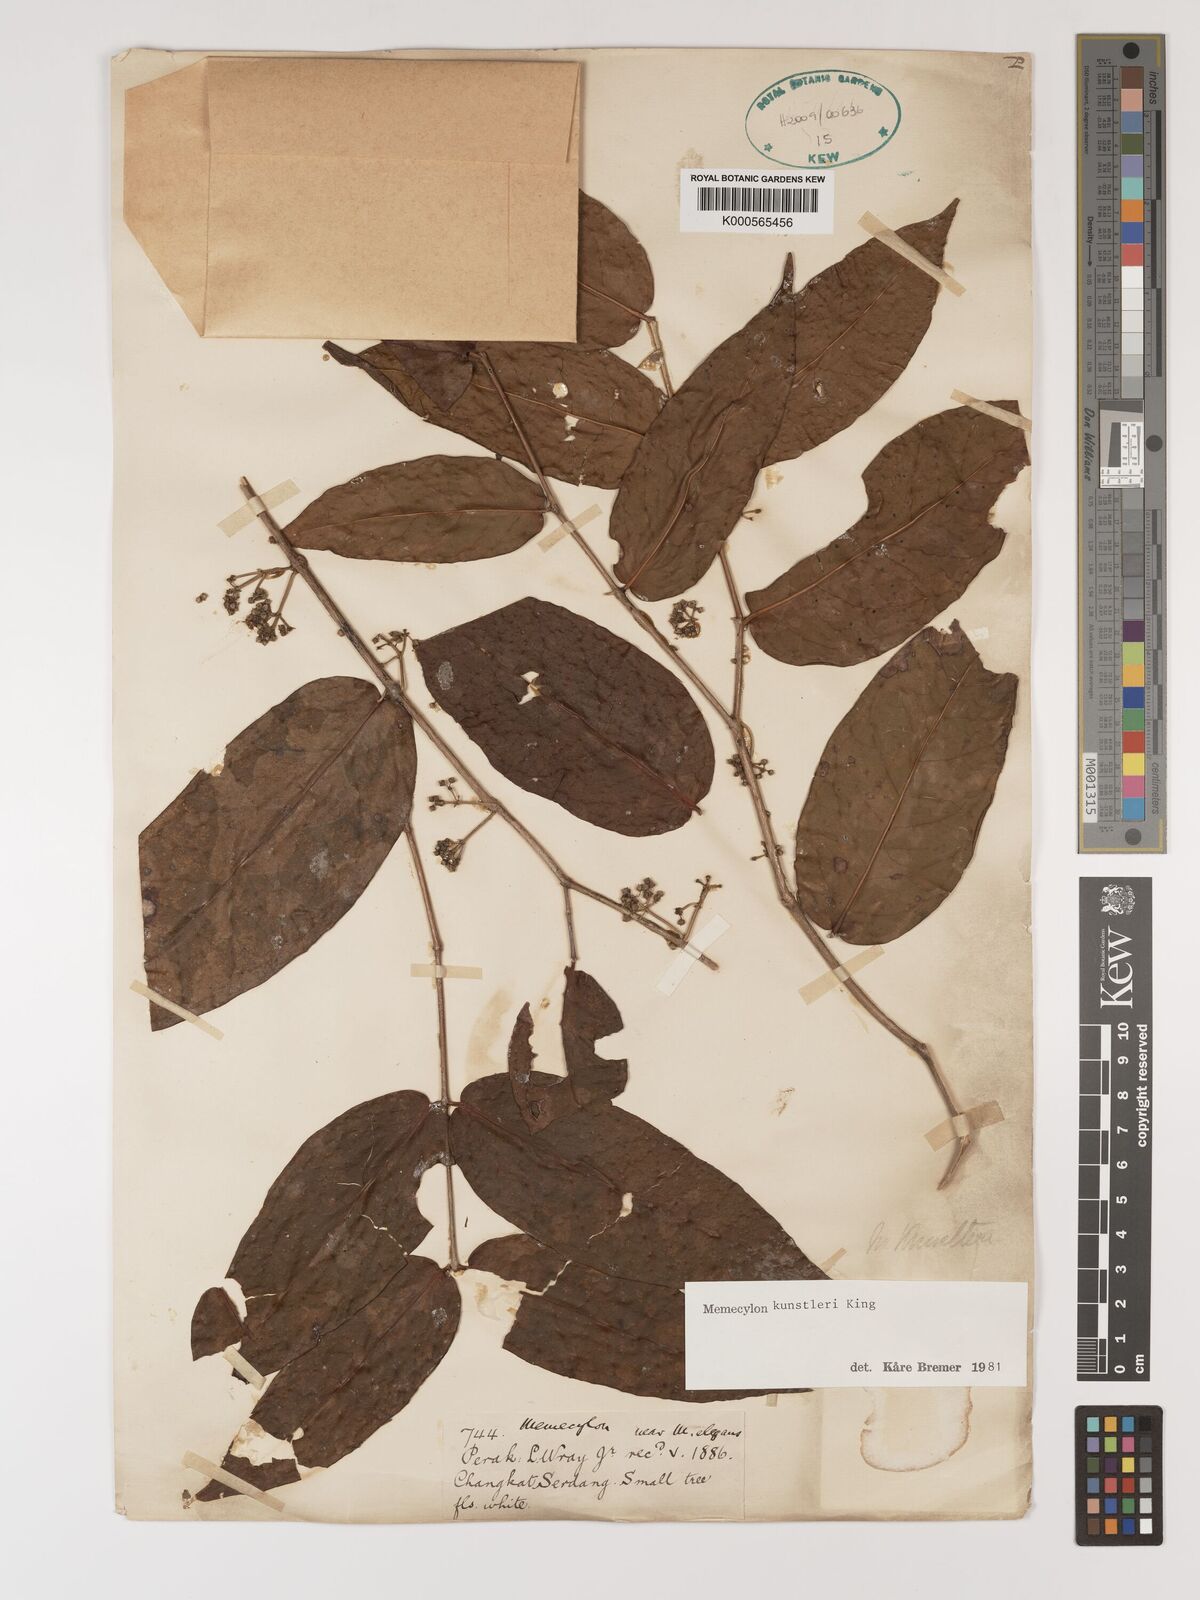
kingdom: Plantae
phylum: Tracheophyta
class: Magnoliopsida
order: Myrtales
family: Melastomataceae
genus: Memecylon
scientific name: Memecylon kunstleri
